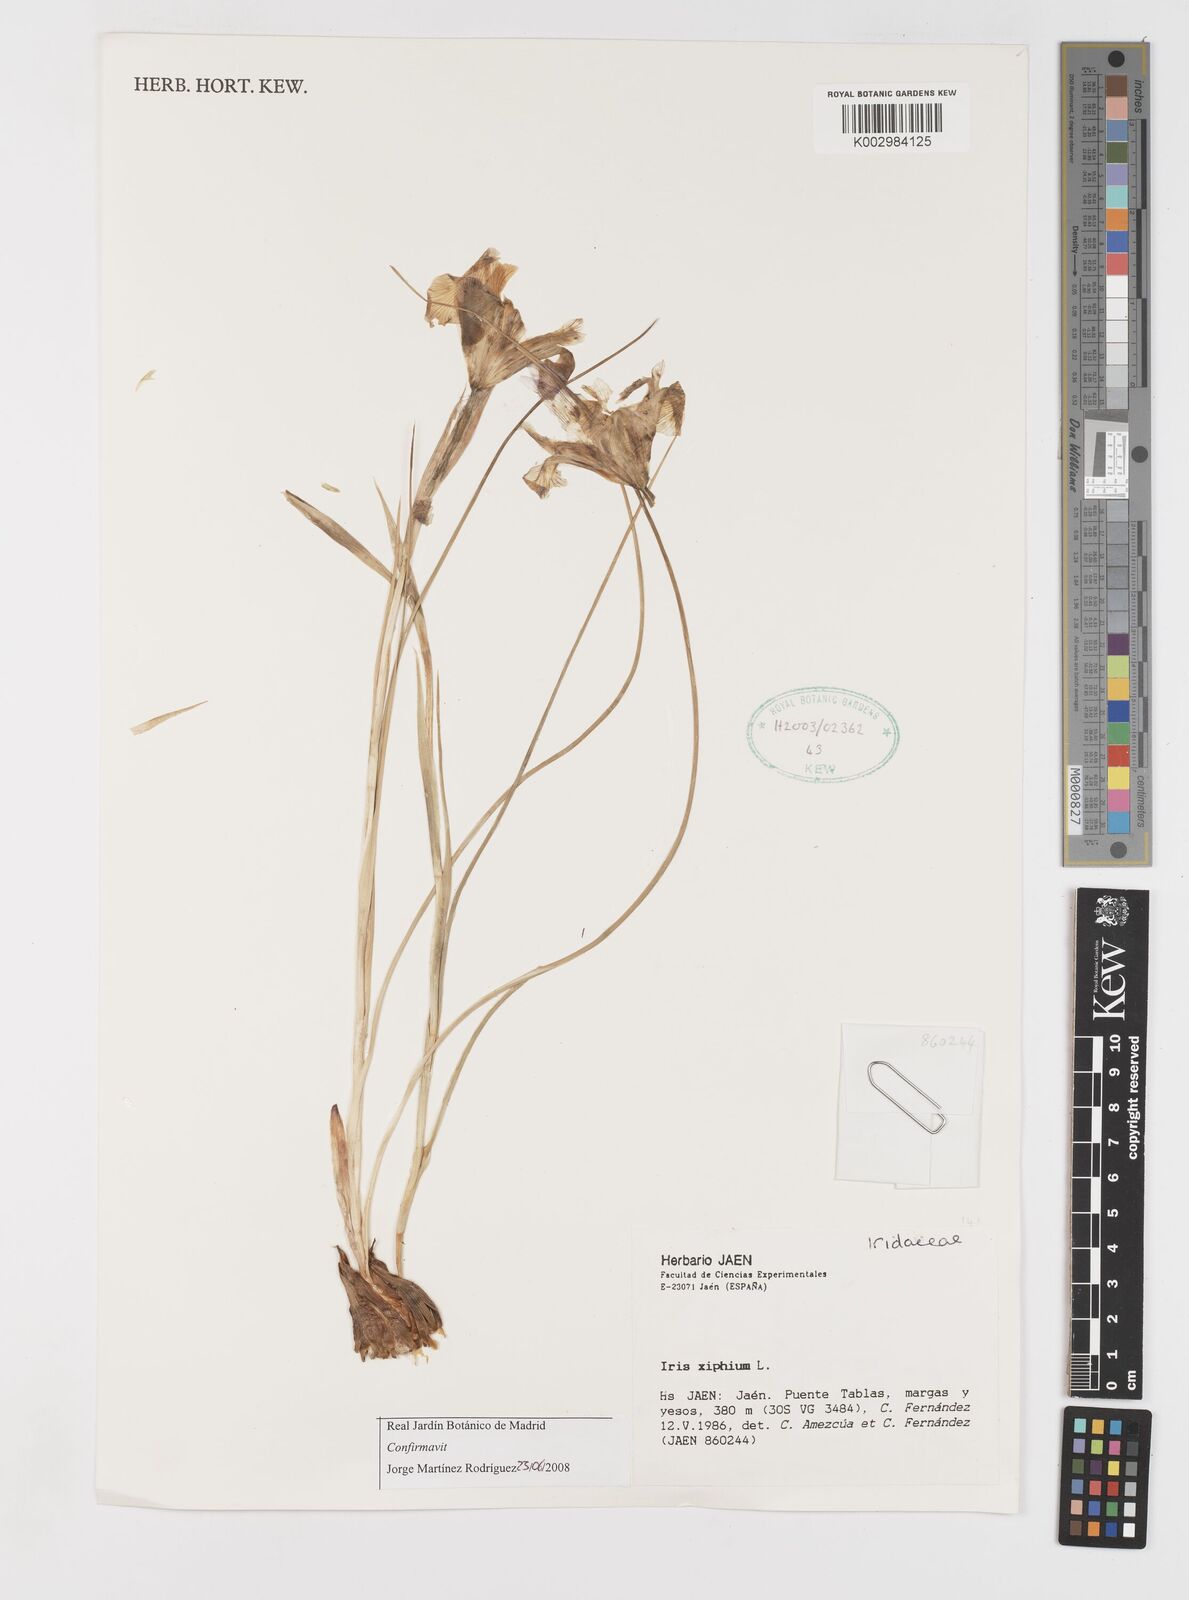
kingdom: Plantae
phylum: Tracheophyta
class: Liliopsida
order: Asparagales
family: Iridaceae
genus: Iris
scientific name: Iris xiphium
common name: Spanish iris
